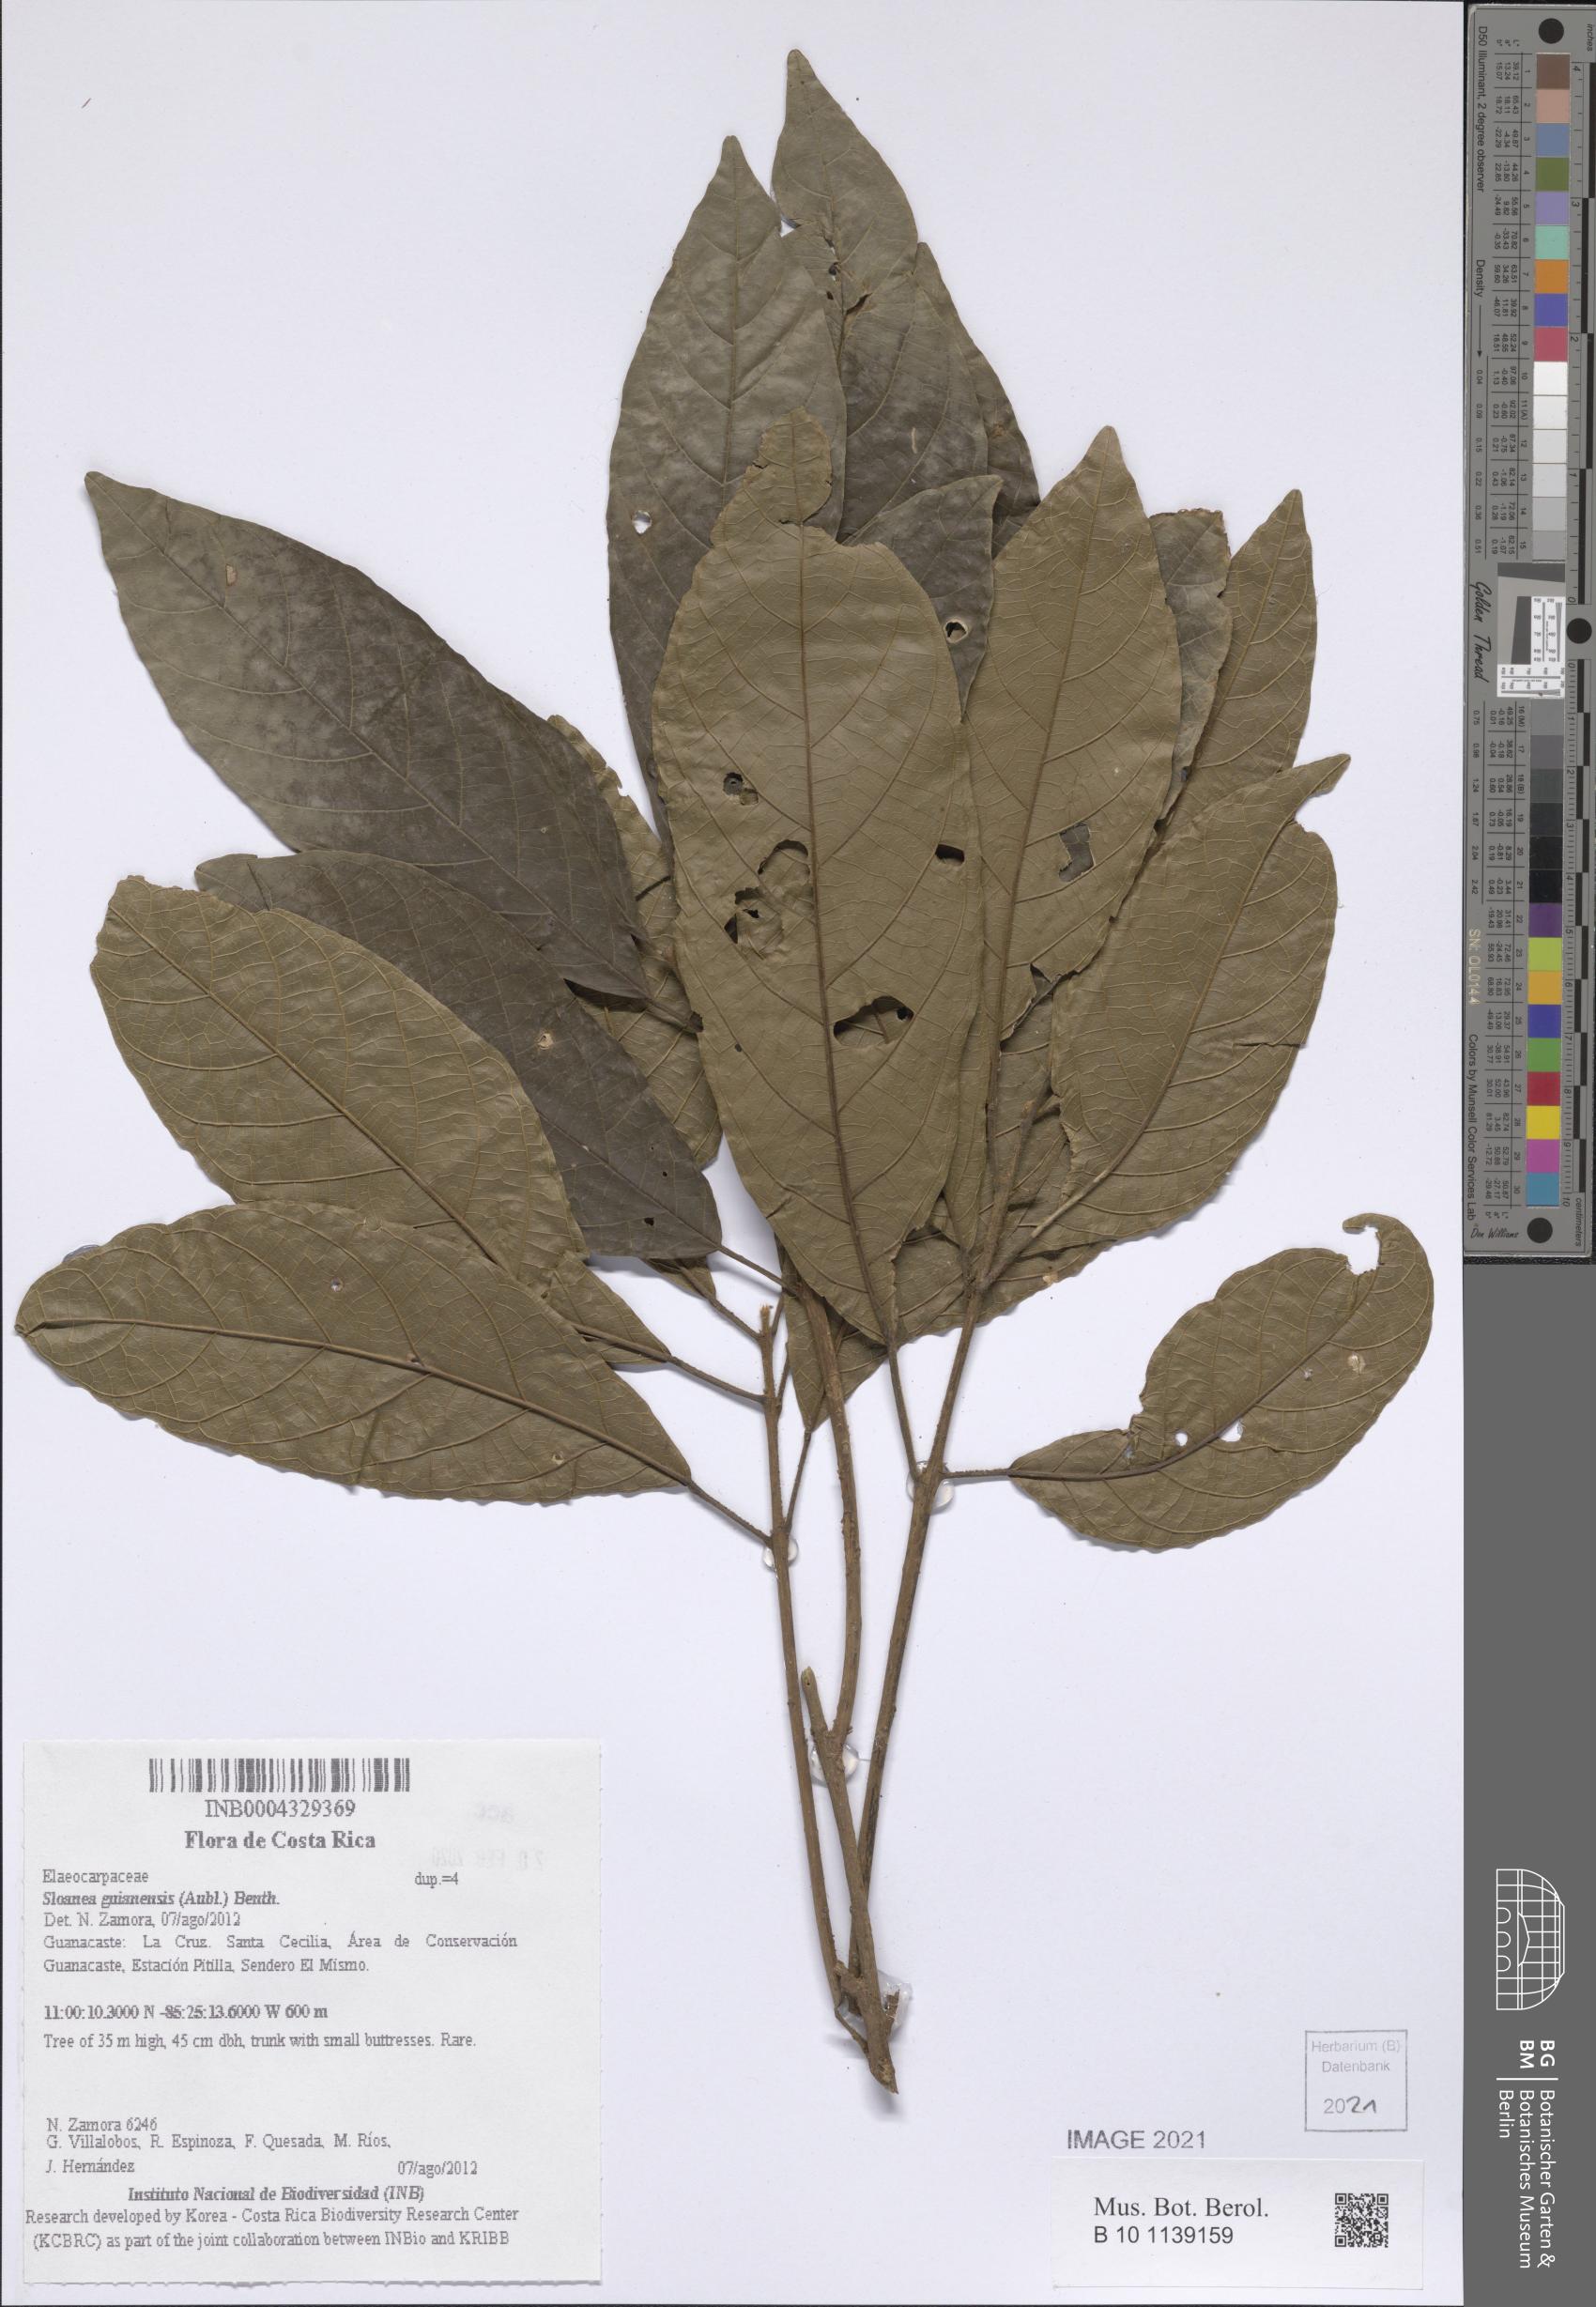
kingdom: Plantae
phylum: Tracheophyta
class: Magnoliopsida
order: Oxalidales
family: Elaeocarpaceae
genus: Sloanea
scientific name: Sloanea guianensis
